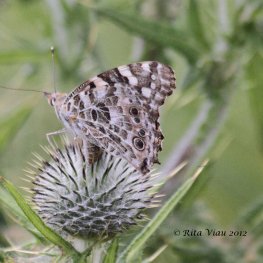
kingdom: Animalia
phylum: Arthropoda
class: Insecta
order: Lepidoptera
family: Nymphalidae
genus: Vanessa
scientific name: Vanessa cardui
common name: Painted Lady
